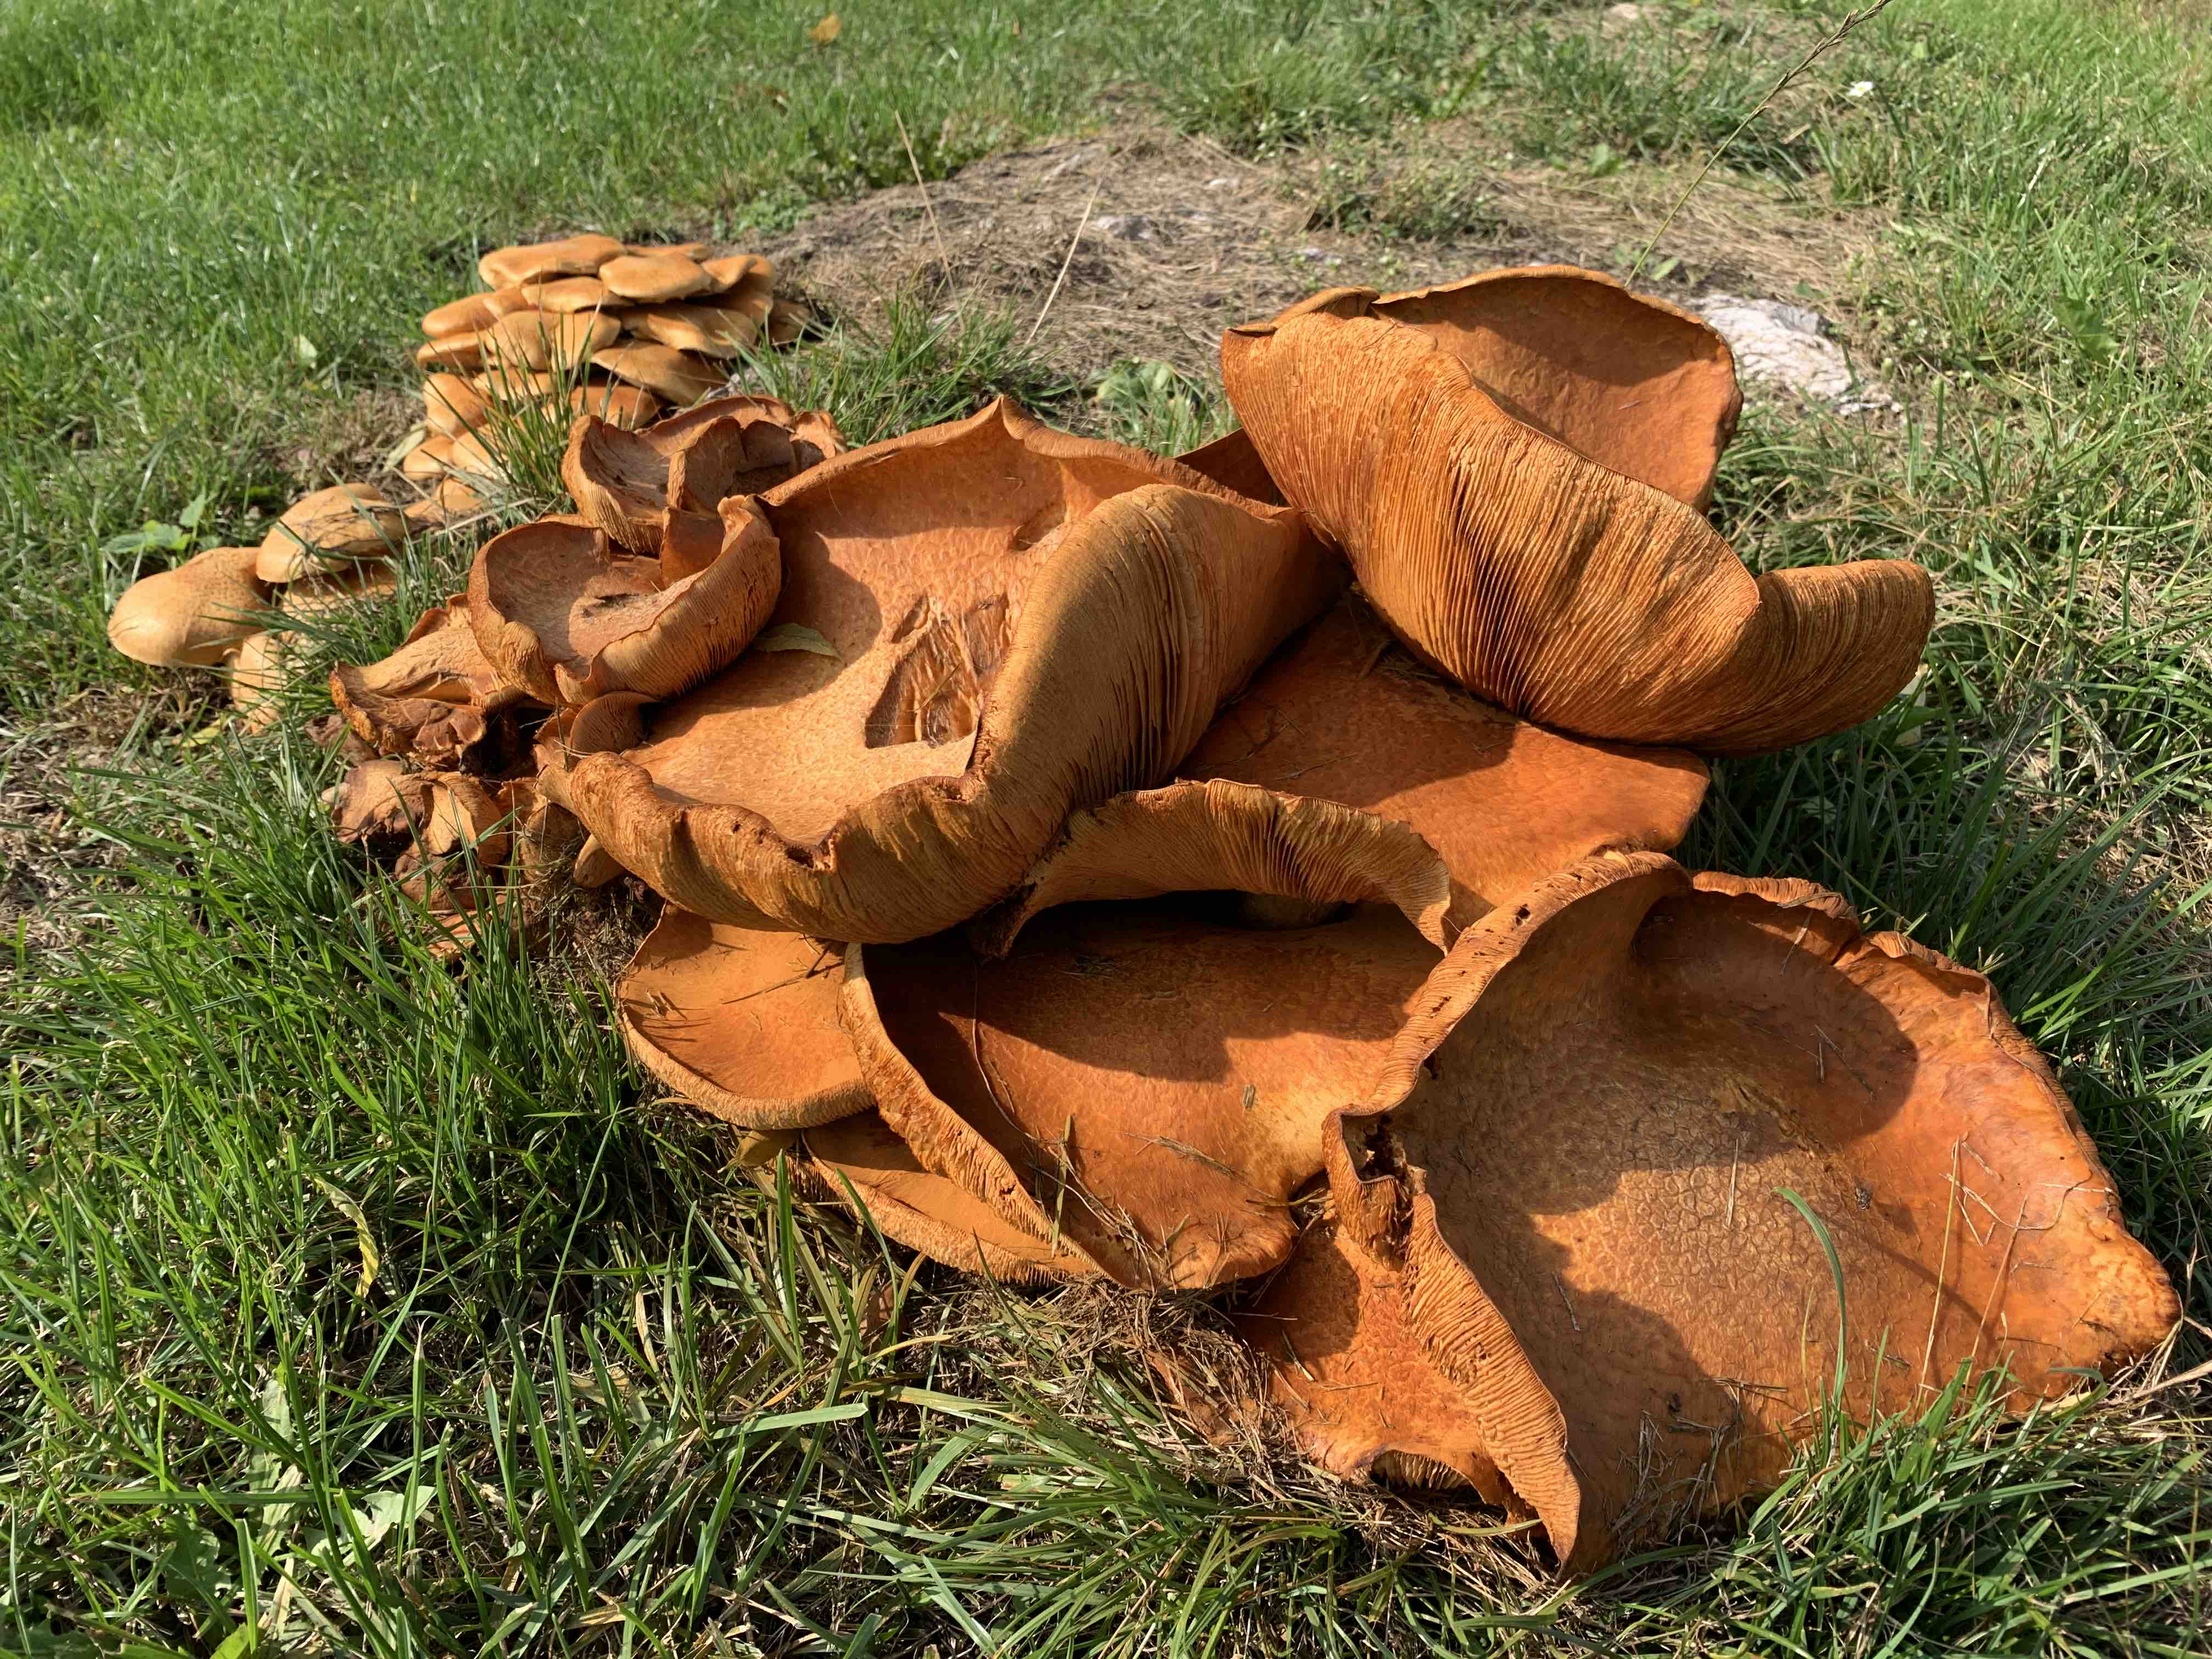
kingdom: Fungi
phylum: Basidiomycota
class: Agaricomycetes
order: Agaricales
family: Hymenogastraceae
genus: Gymnopilus
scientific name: Gymnopilus spectabilis
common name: fibret flammehat
